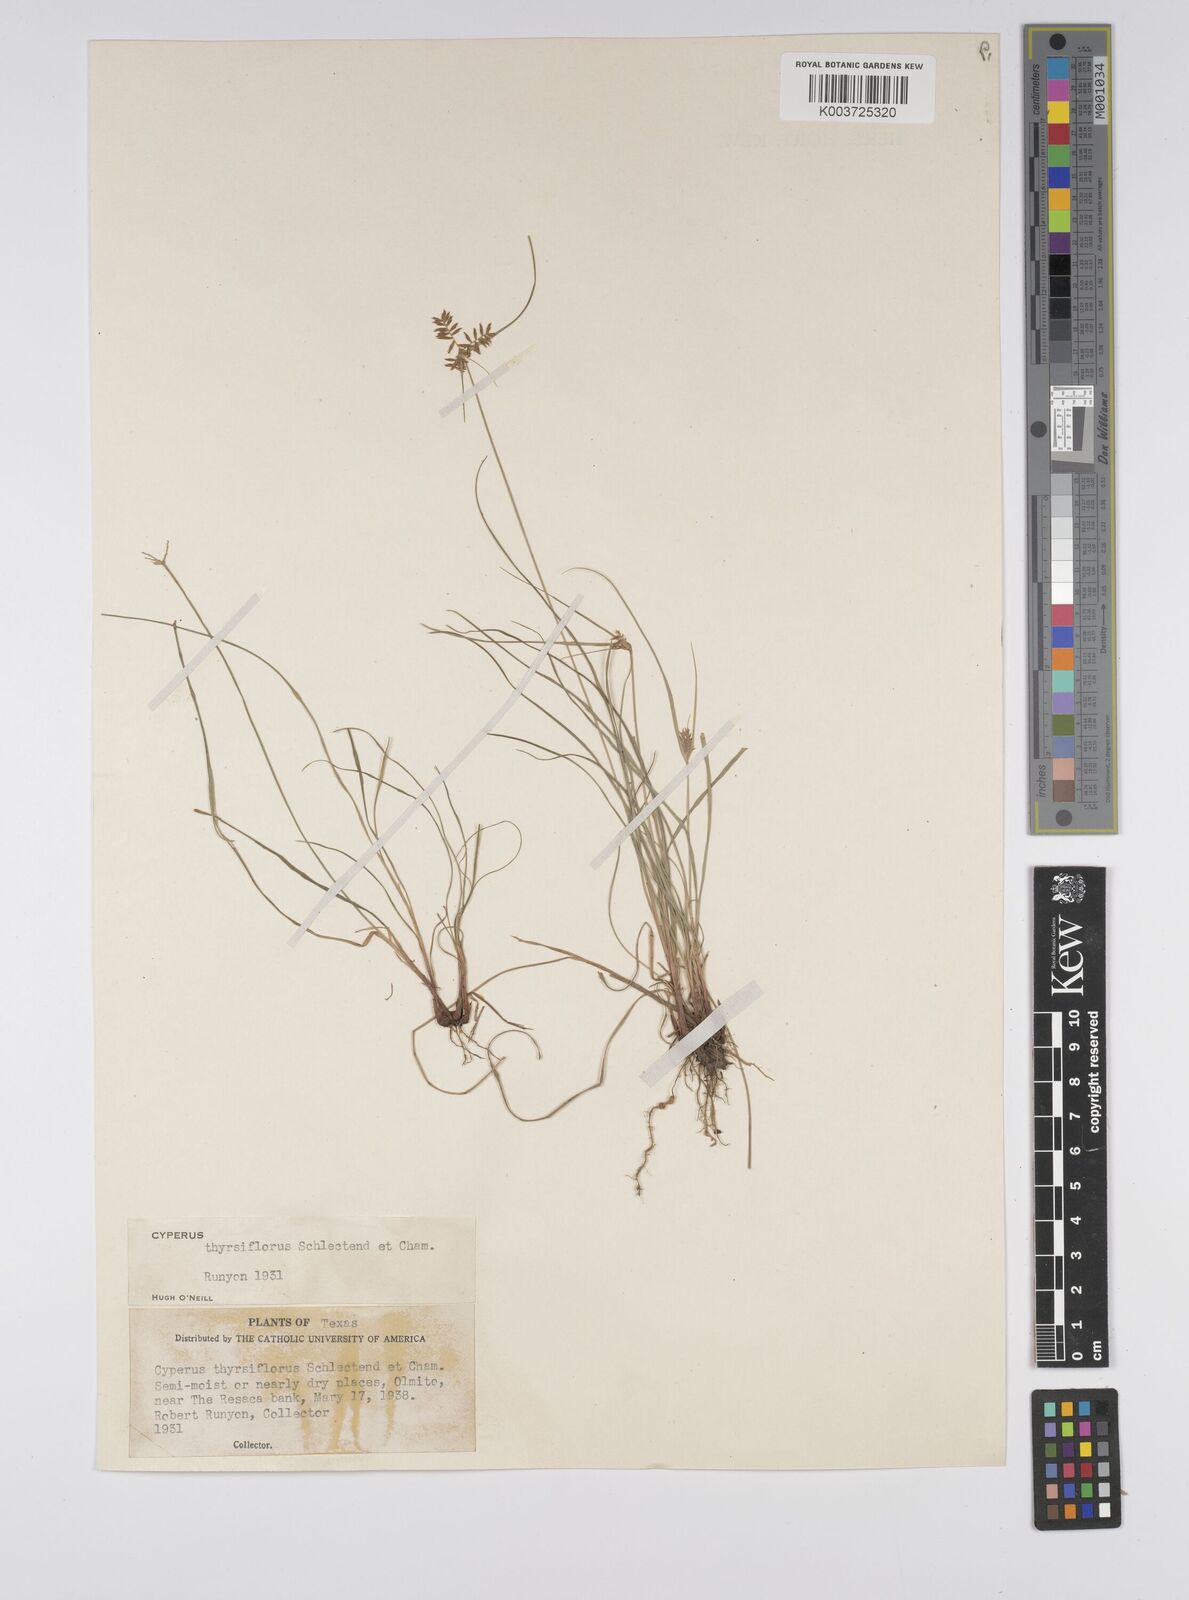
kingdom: Plantae
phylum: Tracheophyta
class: Liliopsida
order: Poales
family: Cyperaceae
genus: Cyperus
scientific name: Cyperus
